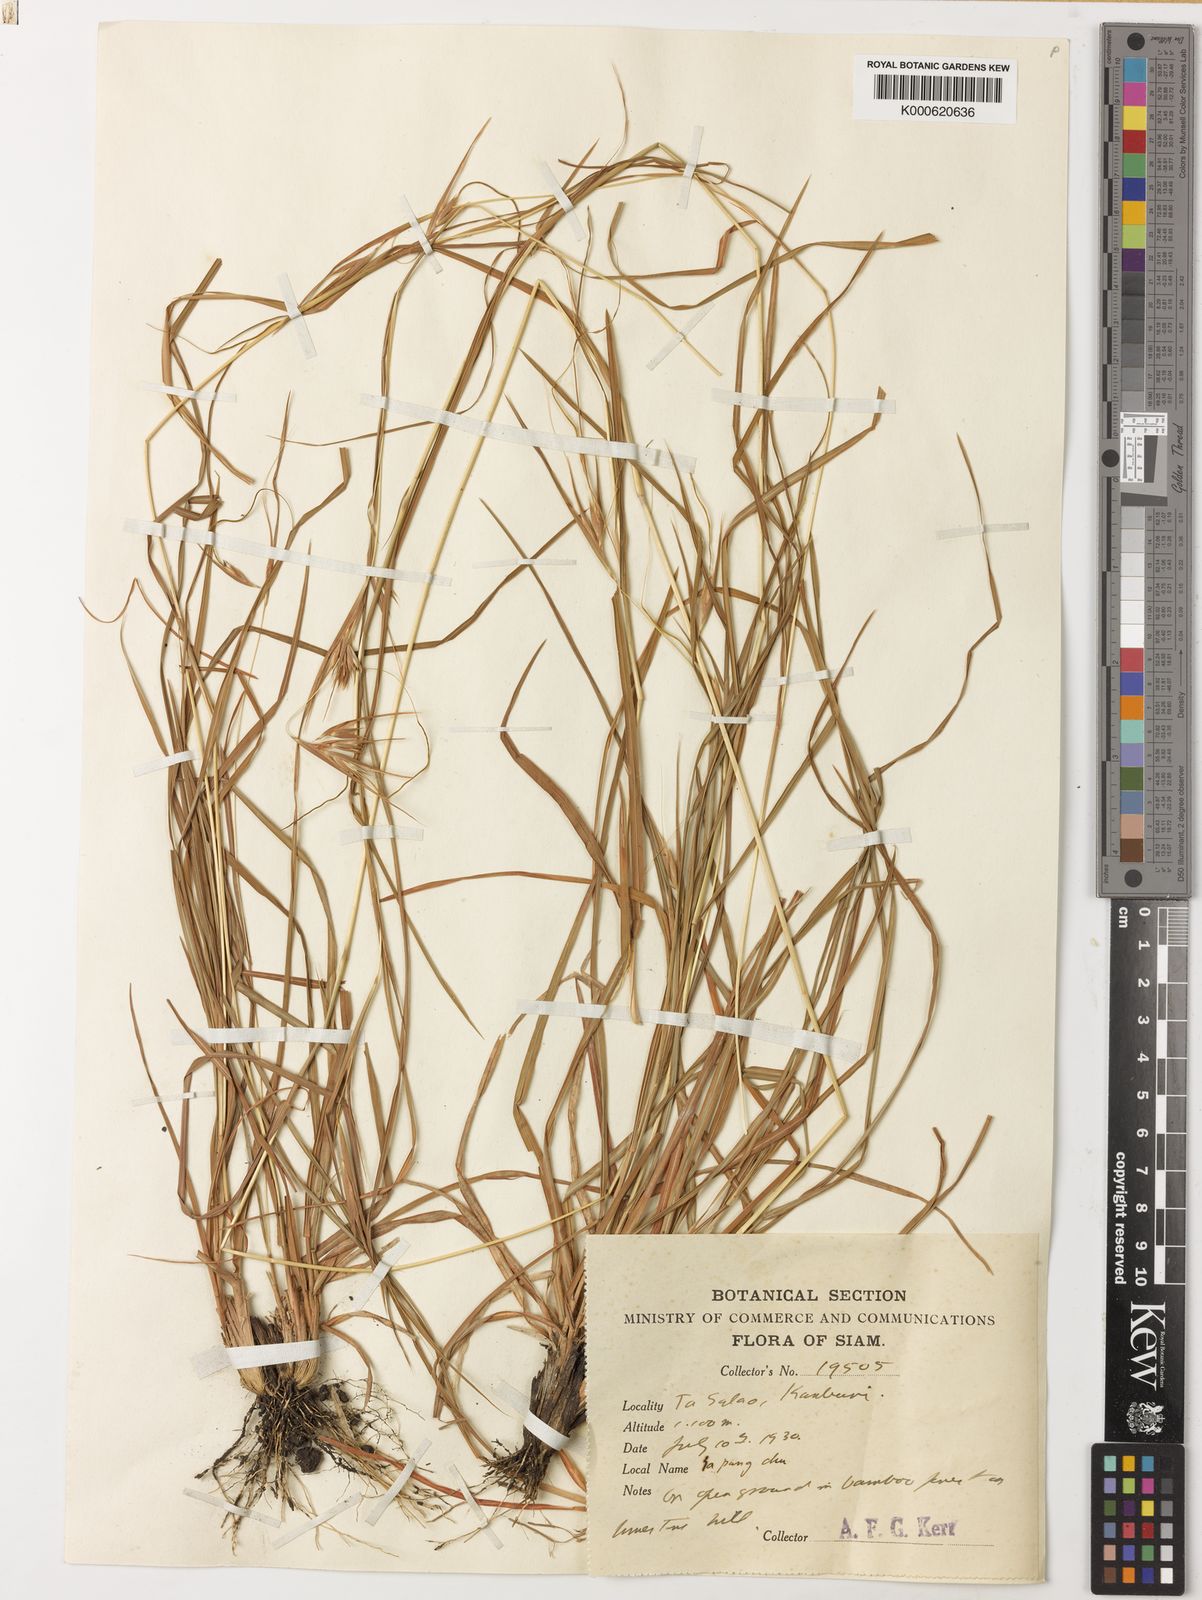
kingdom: Plantae
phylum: Tracheophyta
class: Liliopsida
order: Poales
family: Poaceae
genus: Themeda
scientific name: Themeda triandra
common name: Kangaroo grass
